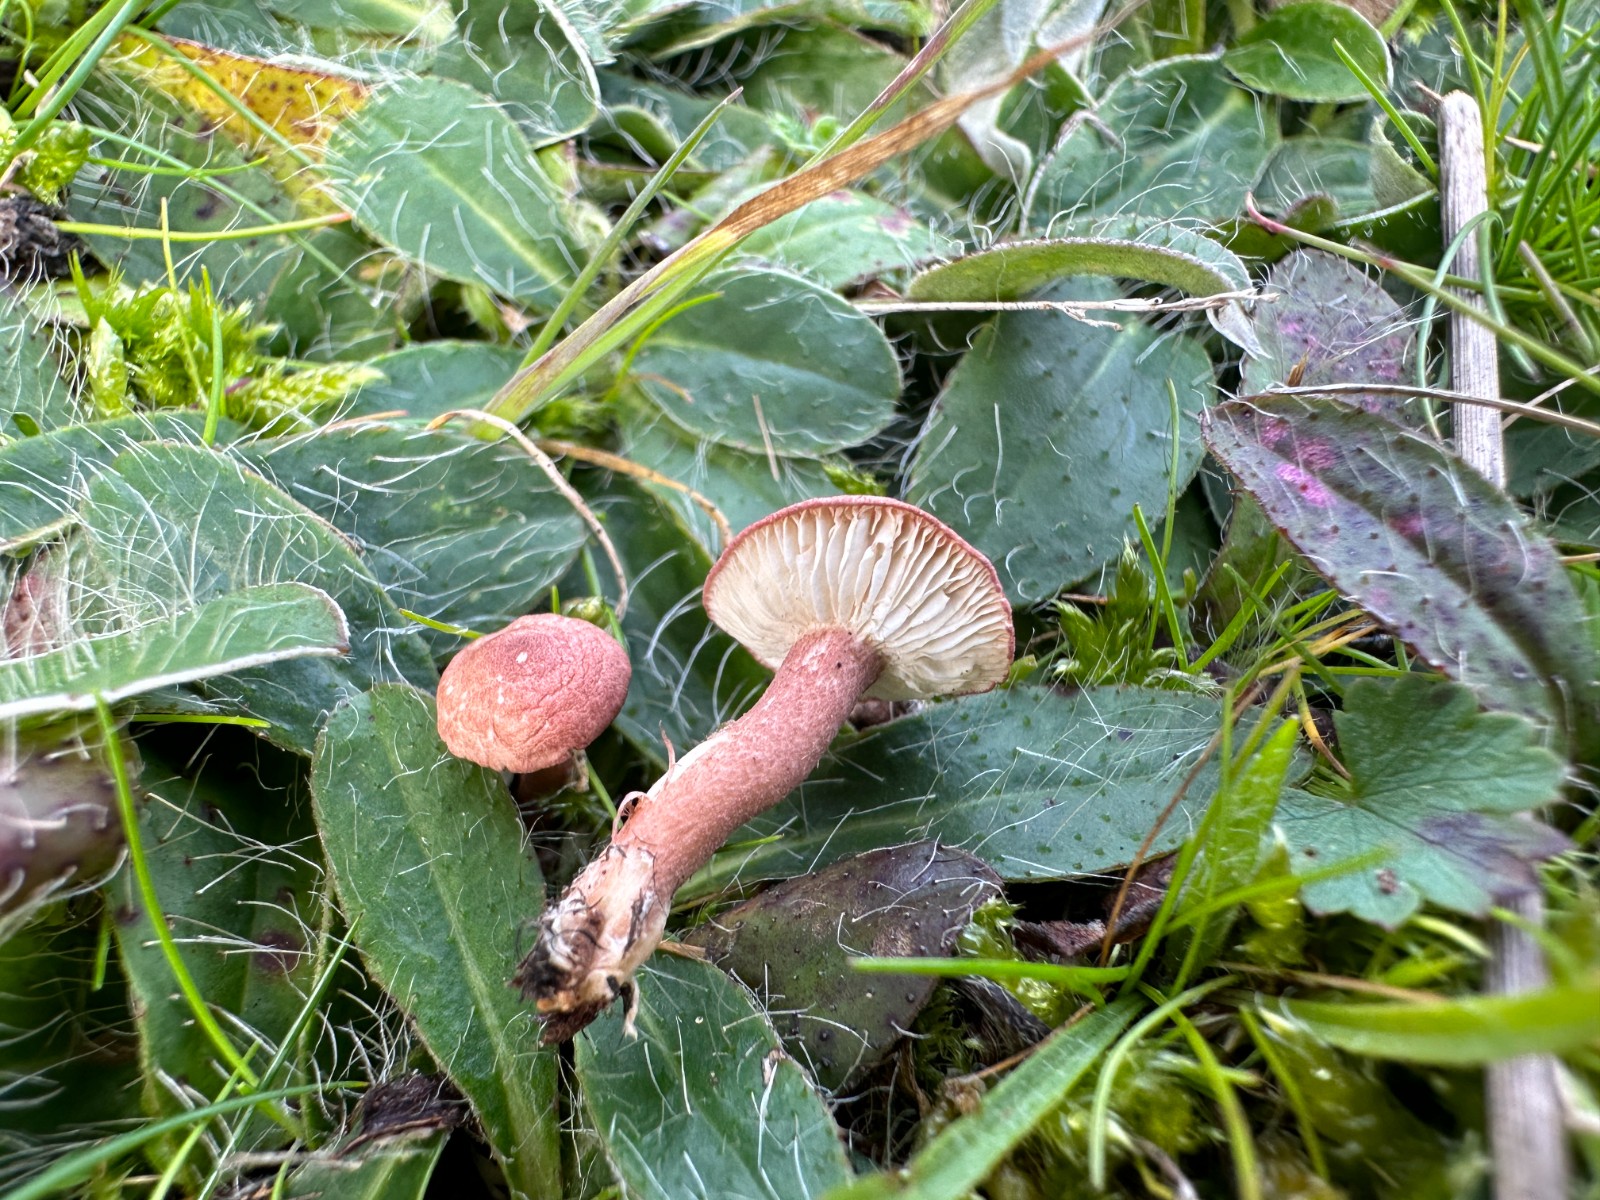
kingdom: Fungi
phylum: Basidiomycota
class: Agaricomycetes
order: Agaricales
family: Lyophyllaceae
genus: Calocybe
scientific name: Calocybe carnea
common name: rosa fagerhat
